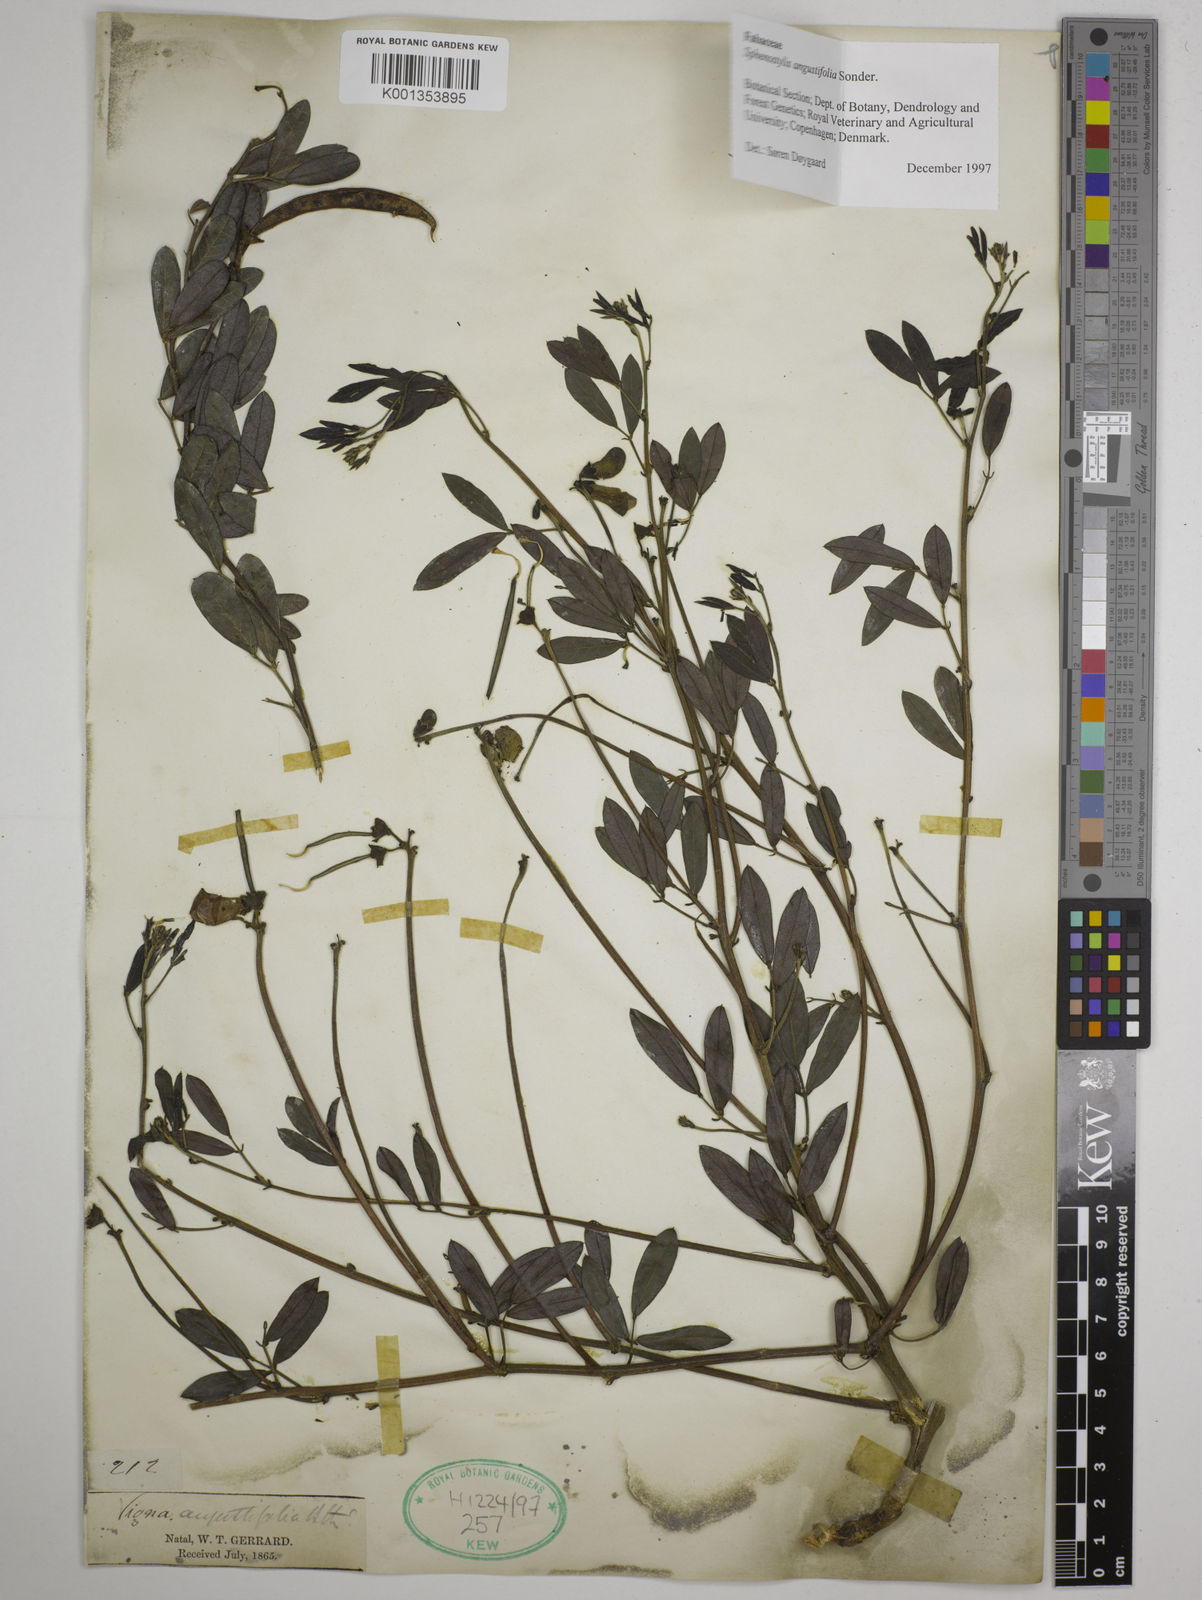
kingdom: Plantae
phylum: Tracheophyta
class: Magnoliopsida
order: Fabales
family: Fabaceae
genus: Sphenostylis
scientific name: Sphenostylis angustifolia
